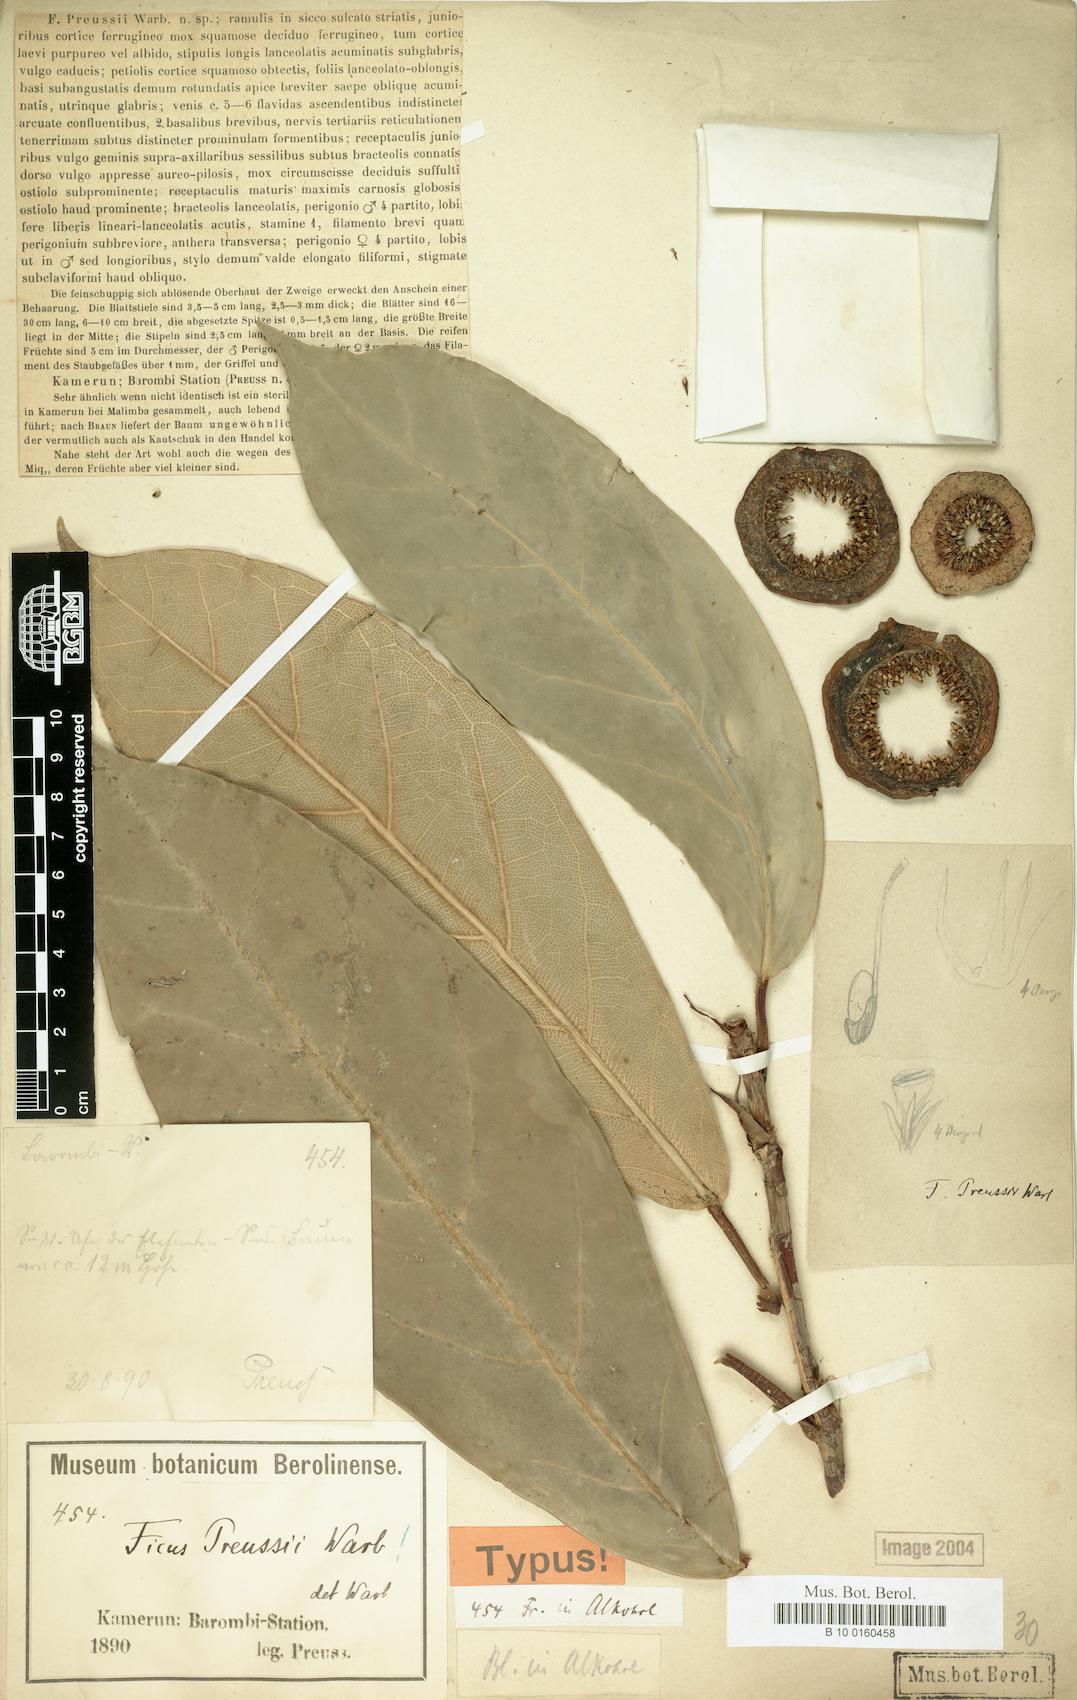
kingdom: Plantae
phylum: Tracheophyta
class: Magnoliopsida
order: Rosales
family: Moraceae
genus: Ficus
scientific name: Ficus preussii
